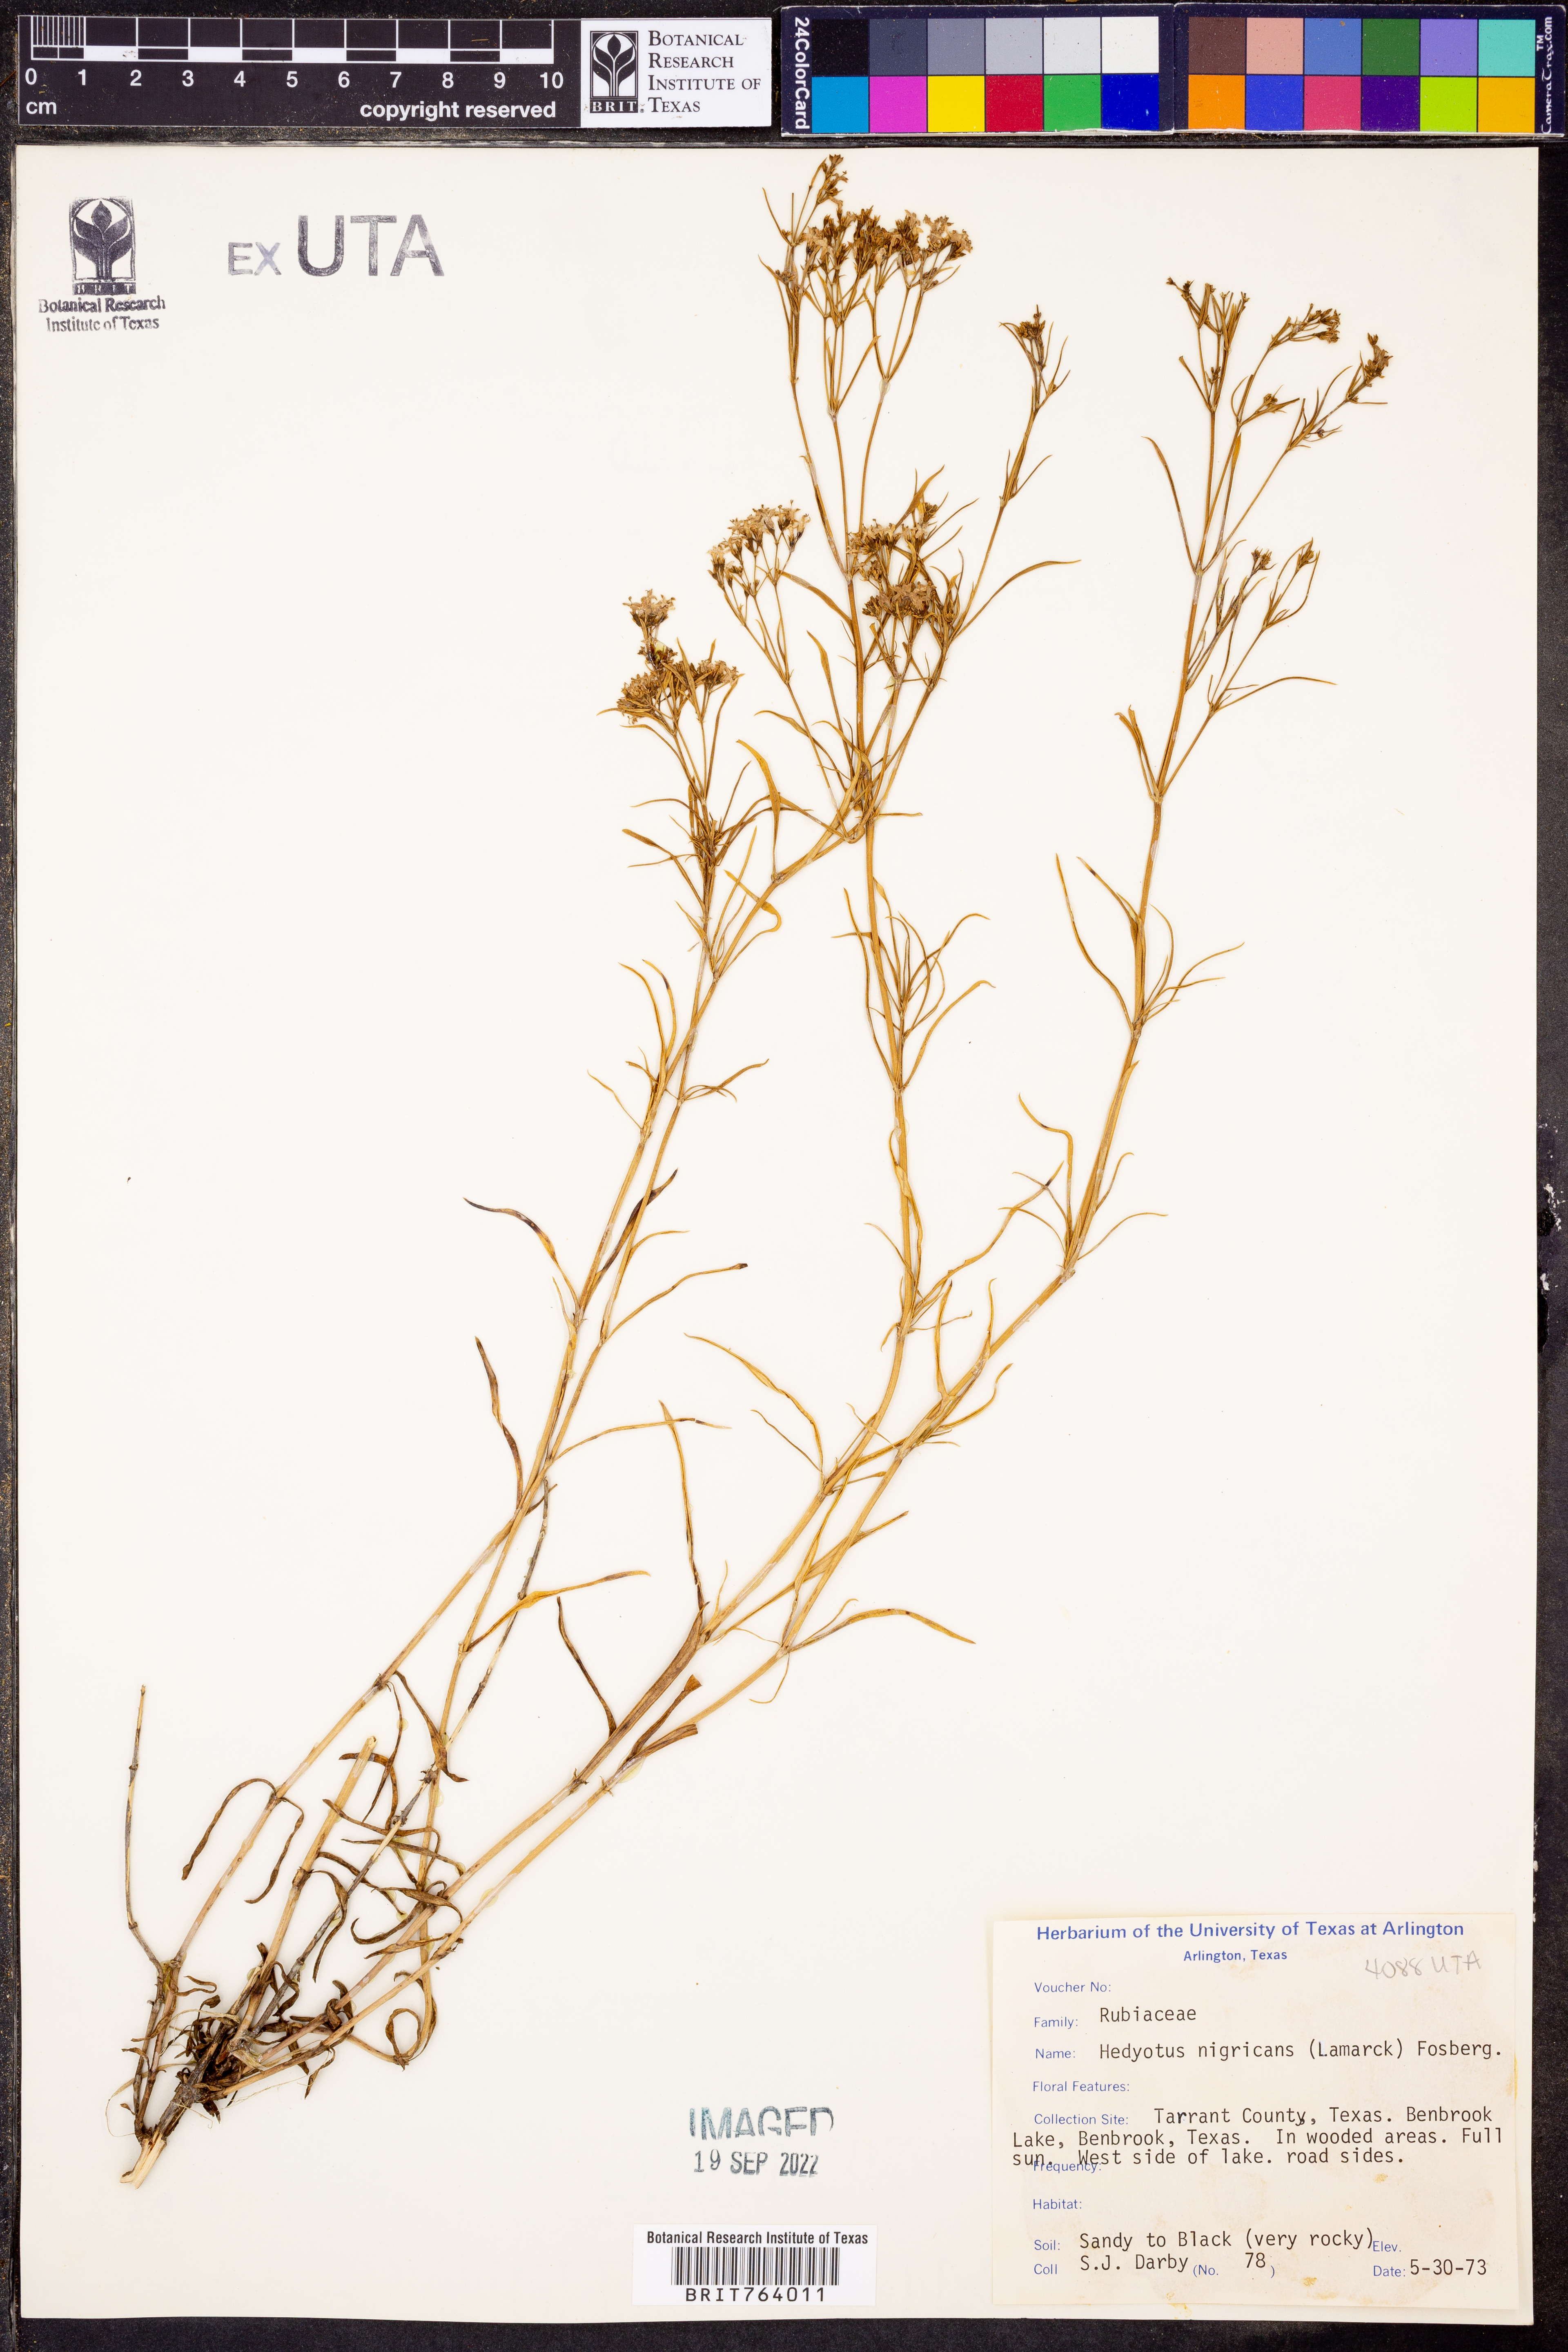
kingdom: Plantae
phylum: Tracheophyta
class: Magnoliopsida
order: Gentianales
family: Rubiaceae
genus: Stenaria
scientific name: Stenaria nigricans
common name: Diamondflowers
